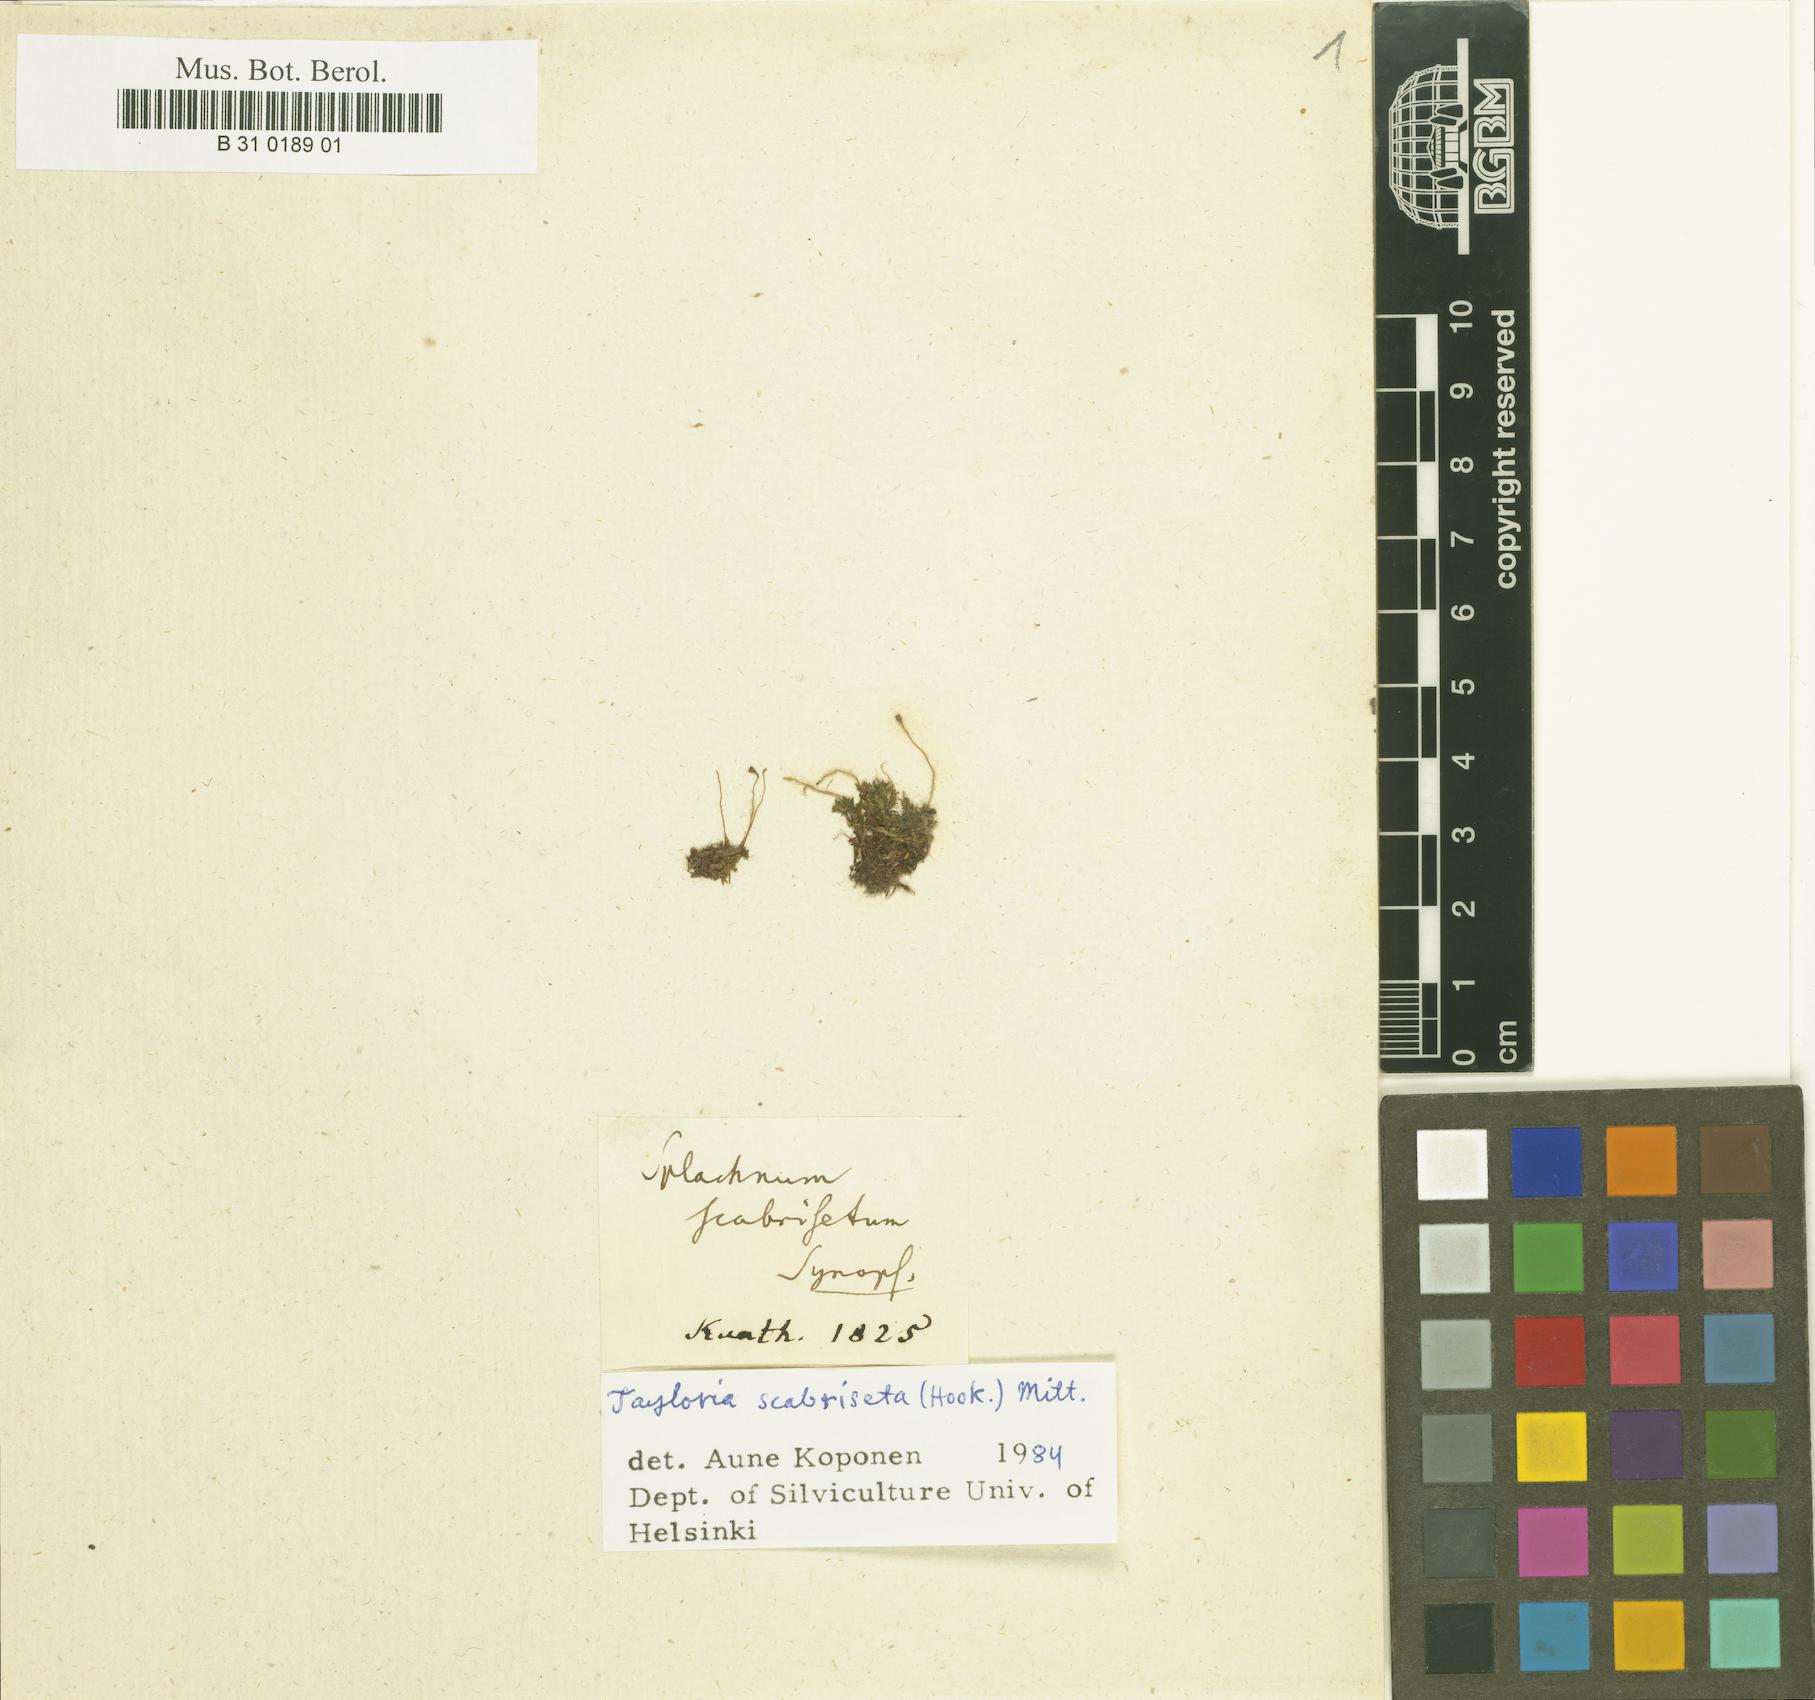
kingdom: Plantae
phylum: Bryophyta
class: Bryopsida
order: Splachnales
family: Splachnaceae
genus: Tayloria
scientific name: Tayloria scabriseta
